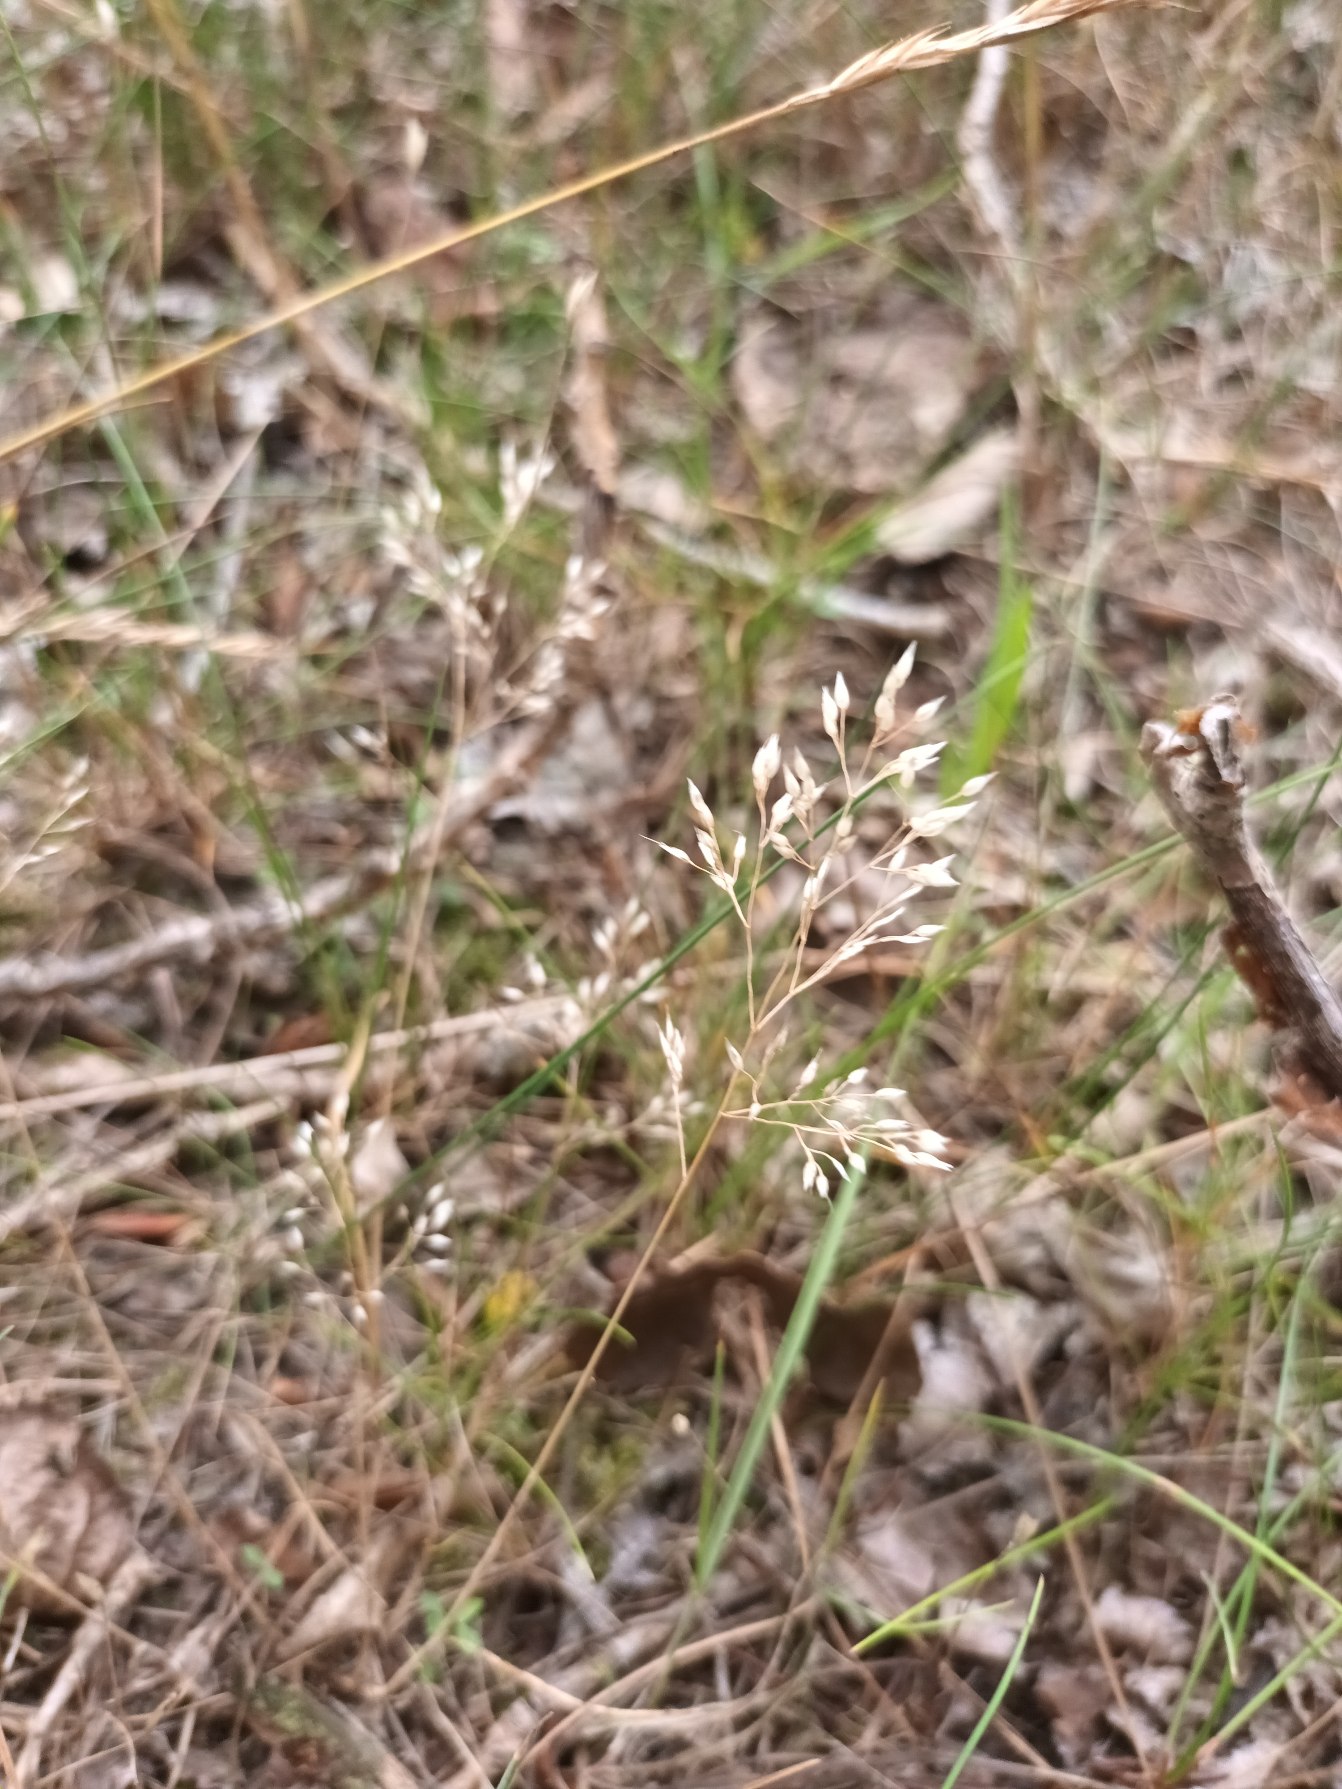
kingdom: Plantae
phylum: Tracheophyta
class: Liliopsida
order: Poales
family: Poaceae
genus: Aira
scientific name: Aira caryophyllea
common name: Udspærret dværgbunke
